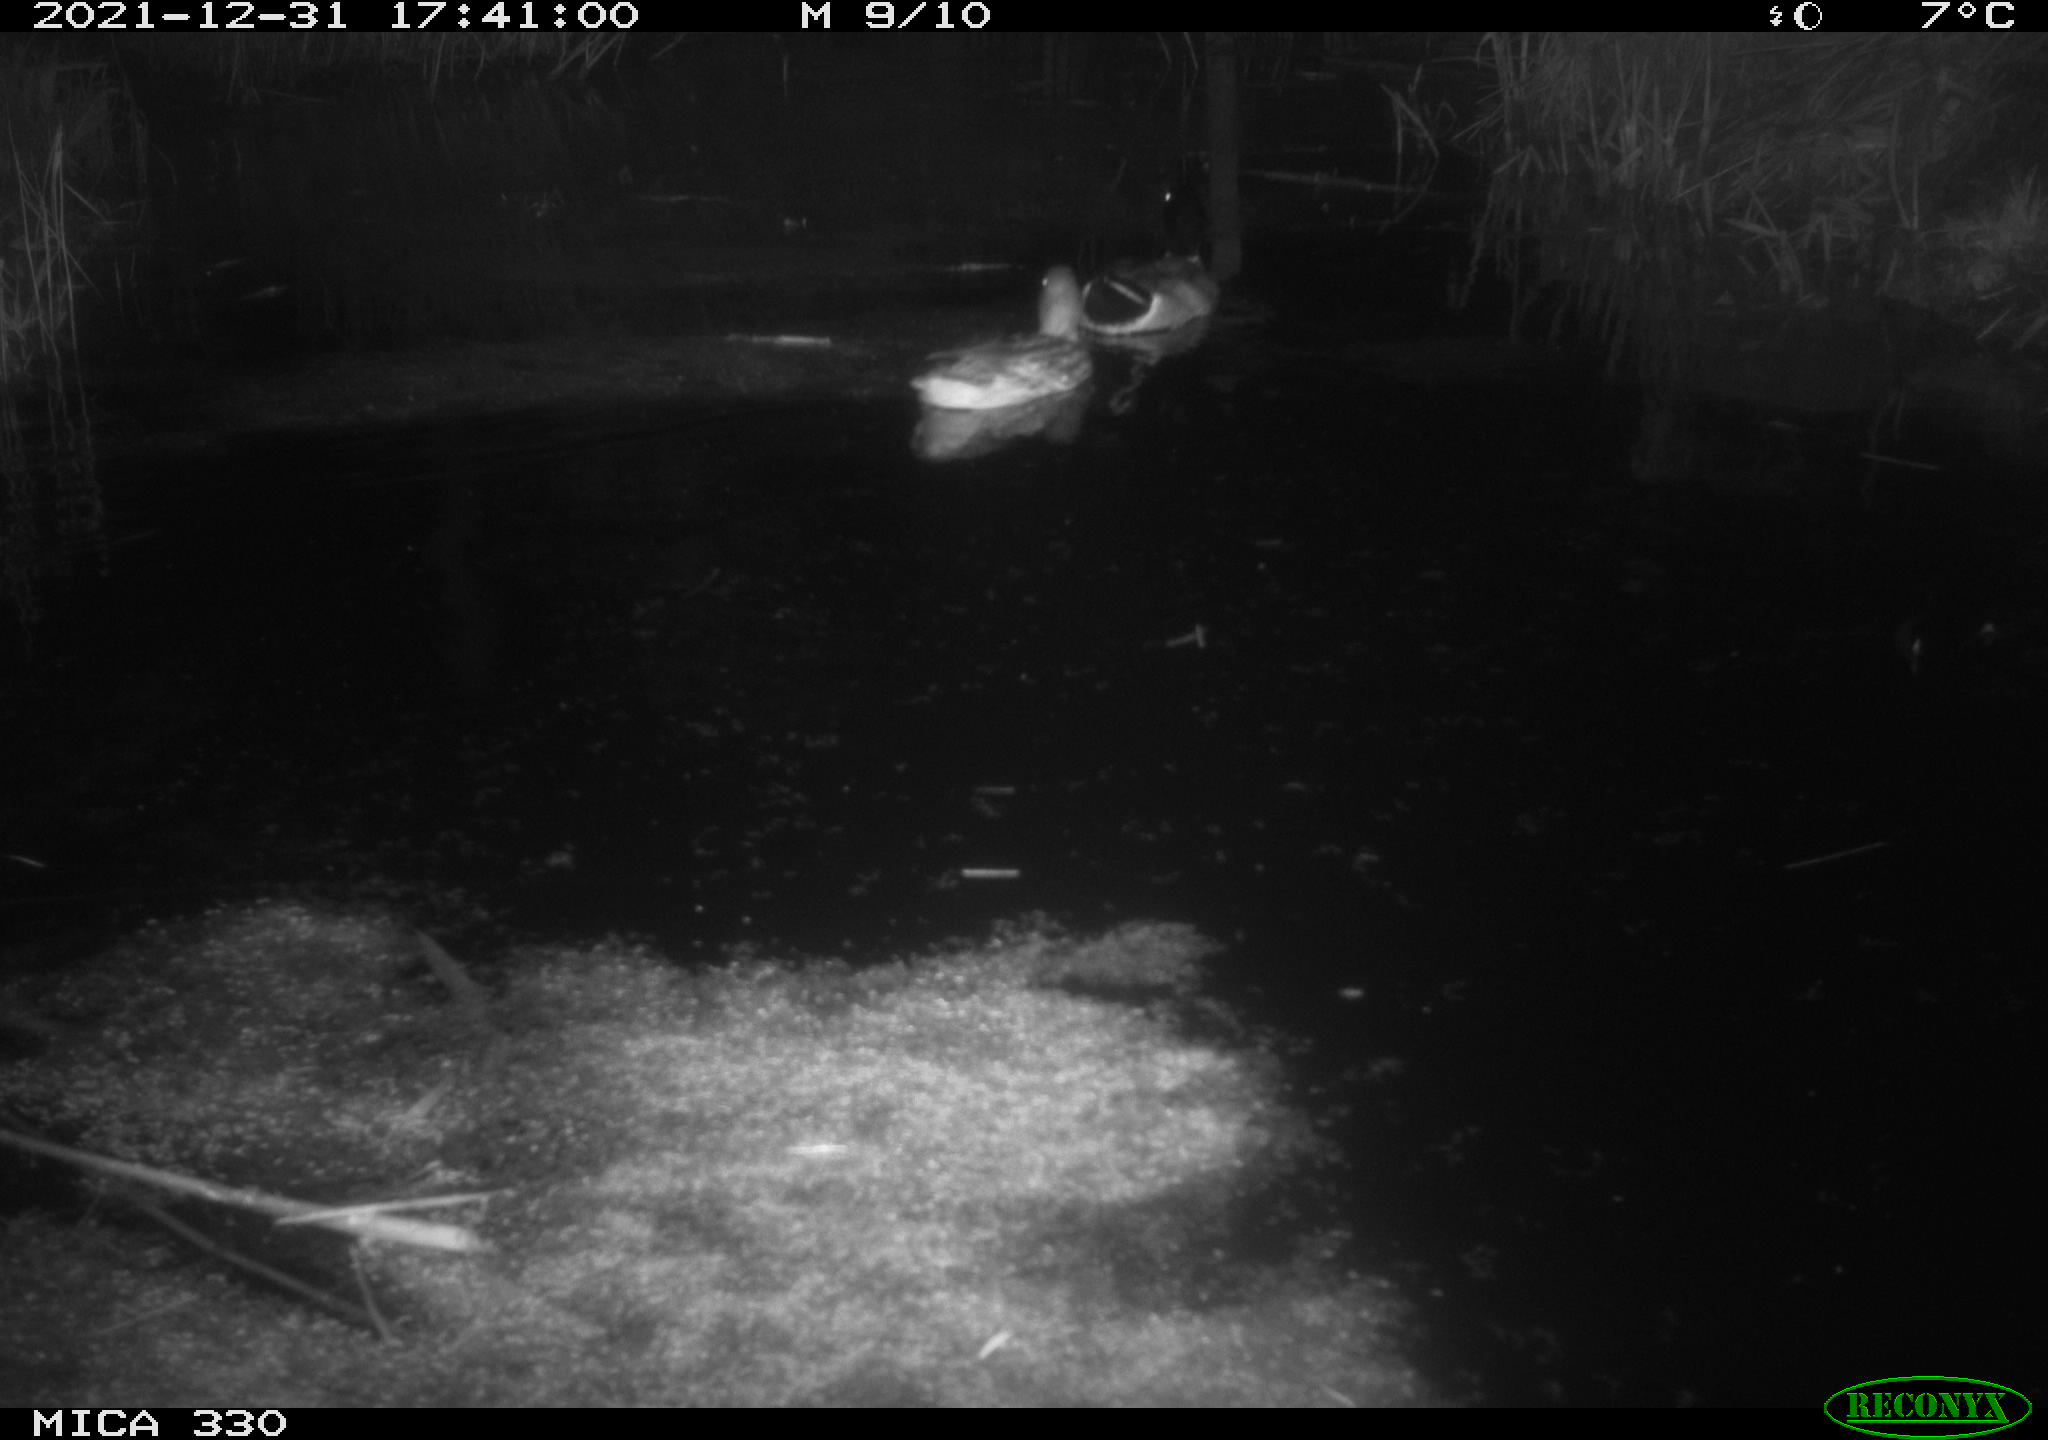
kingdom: Animalia
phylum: Chordata
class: Aves
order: Anseriformes
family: Anatidae
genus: Anas
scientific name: Anas platyrhynchos
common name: Mallard
